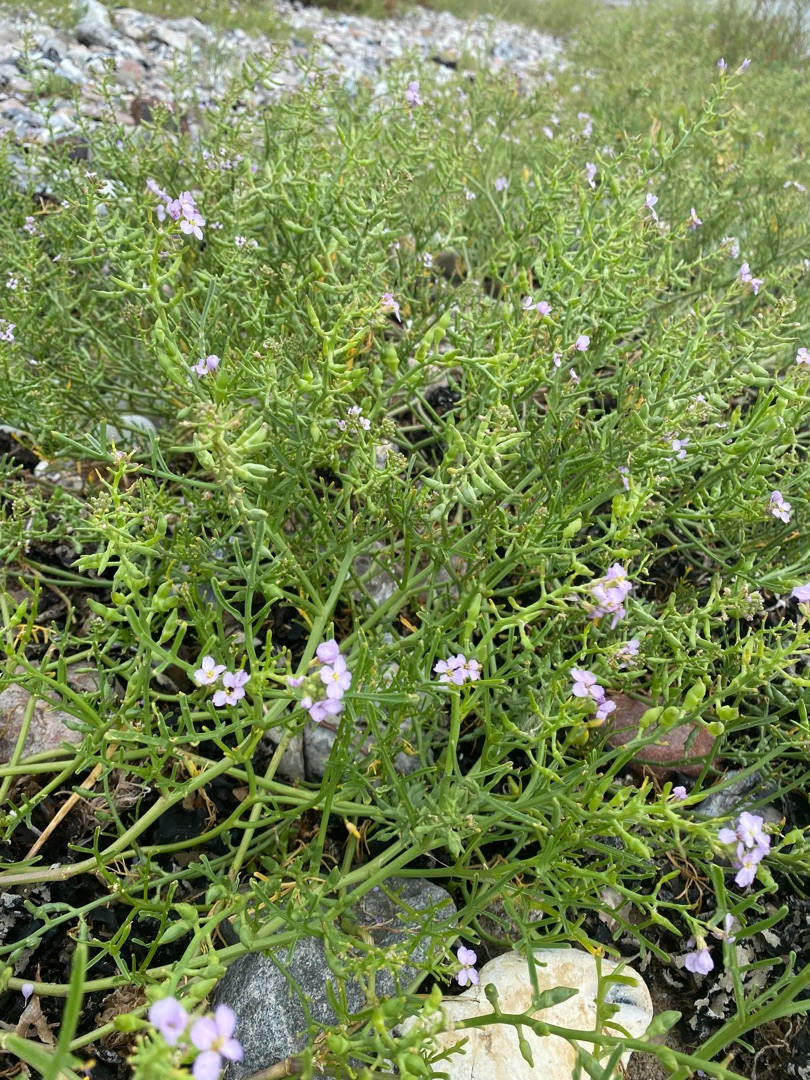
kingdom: Plantae
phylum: Tracheophyta
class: Magnoliopsida
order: Brassicales
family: Brassicaceae
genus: Cakile
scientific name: Cakile maritima
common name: Østersø-strandsennep
